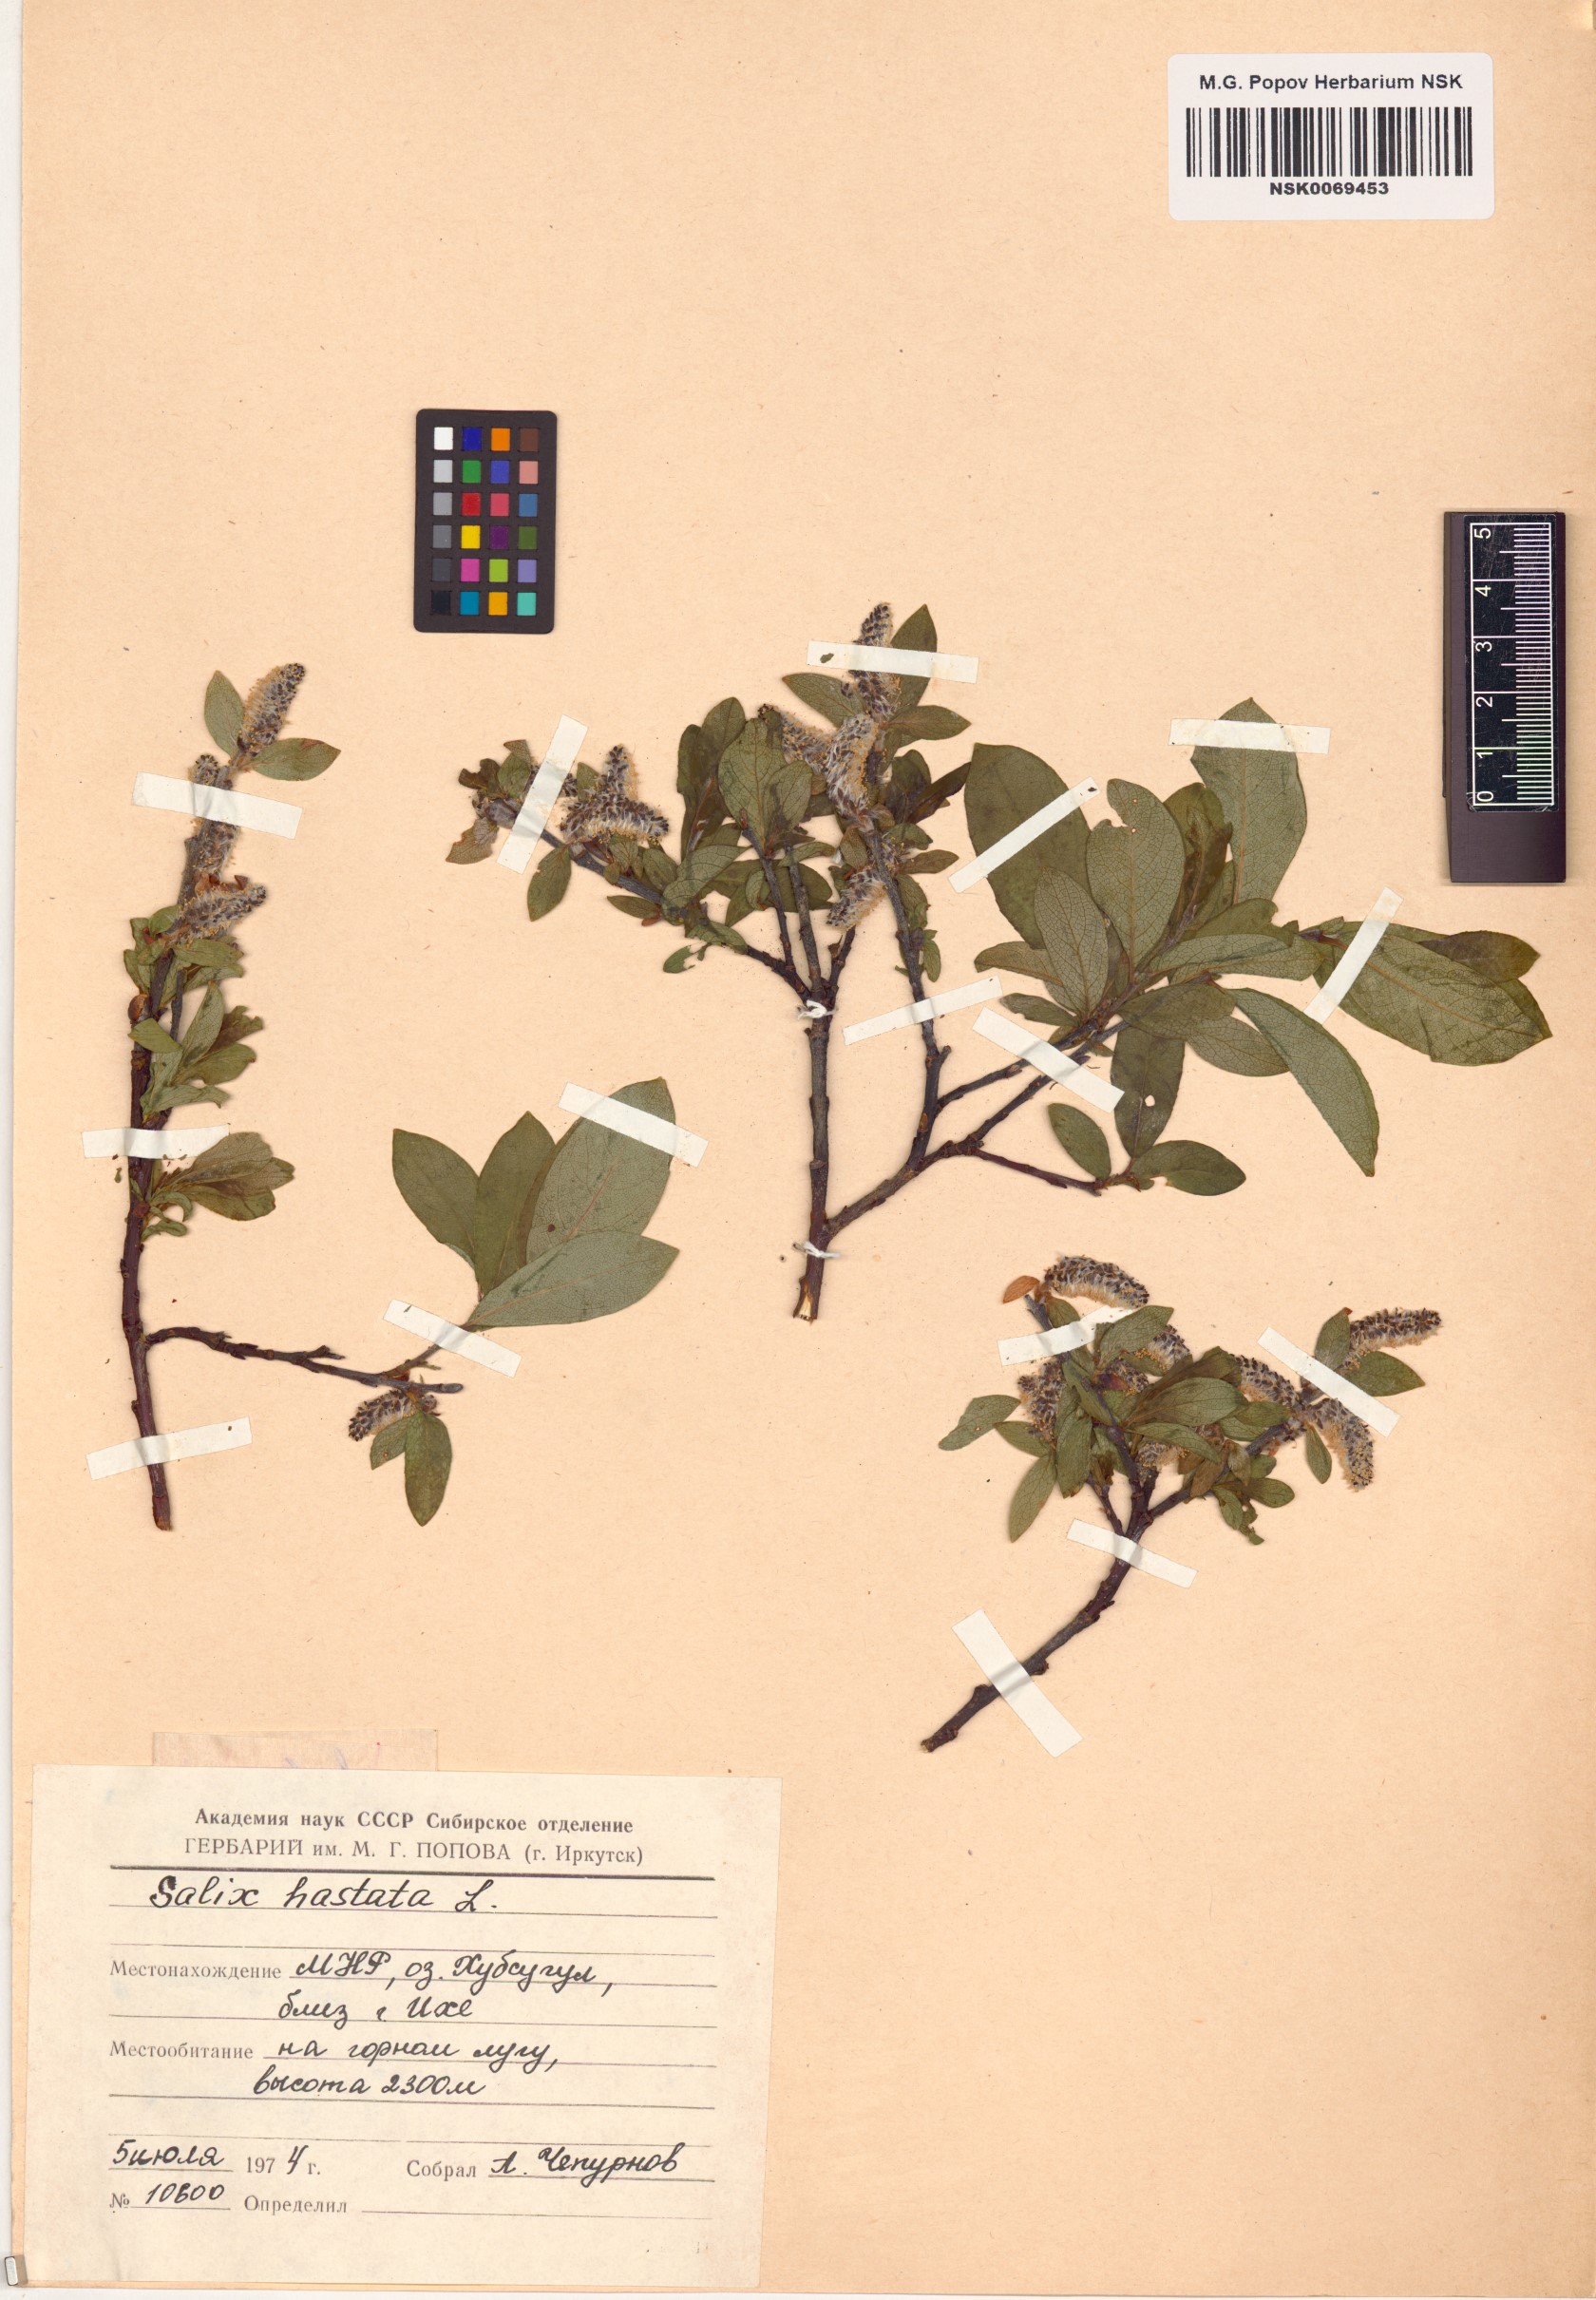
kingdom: Plantae
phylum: Tracheophyta
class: Magnoliopsida
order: Malpighiales
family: Salicaceae
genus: Salix
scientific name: Salix hastata
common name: Halberd willow
